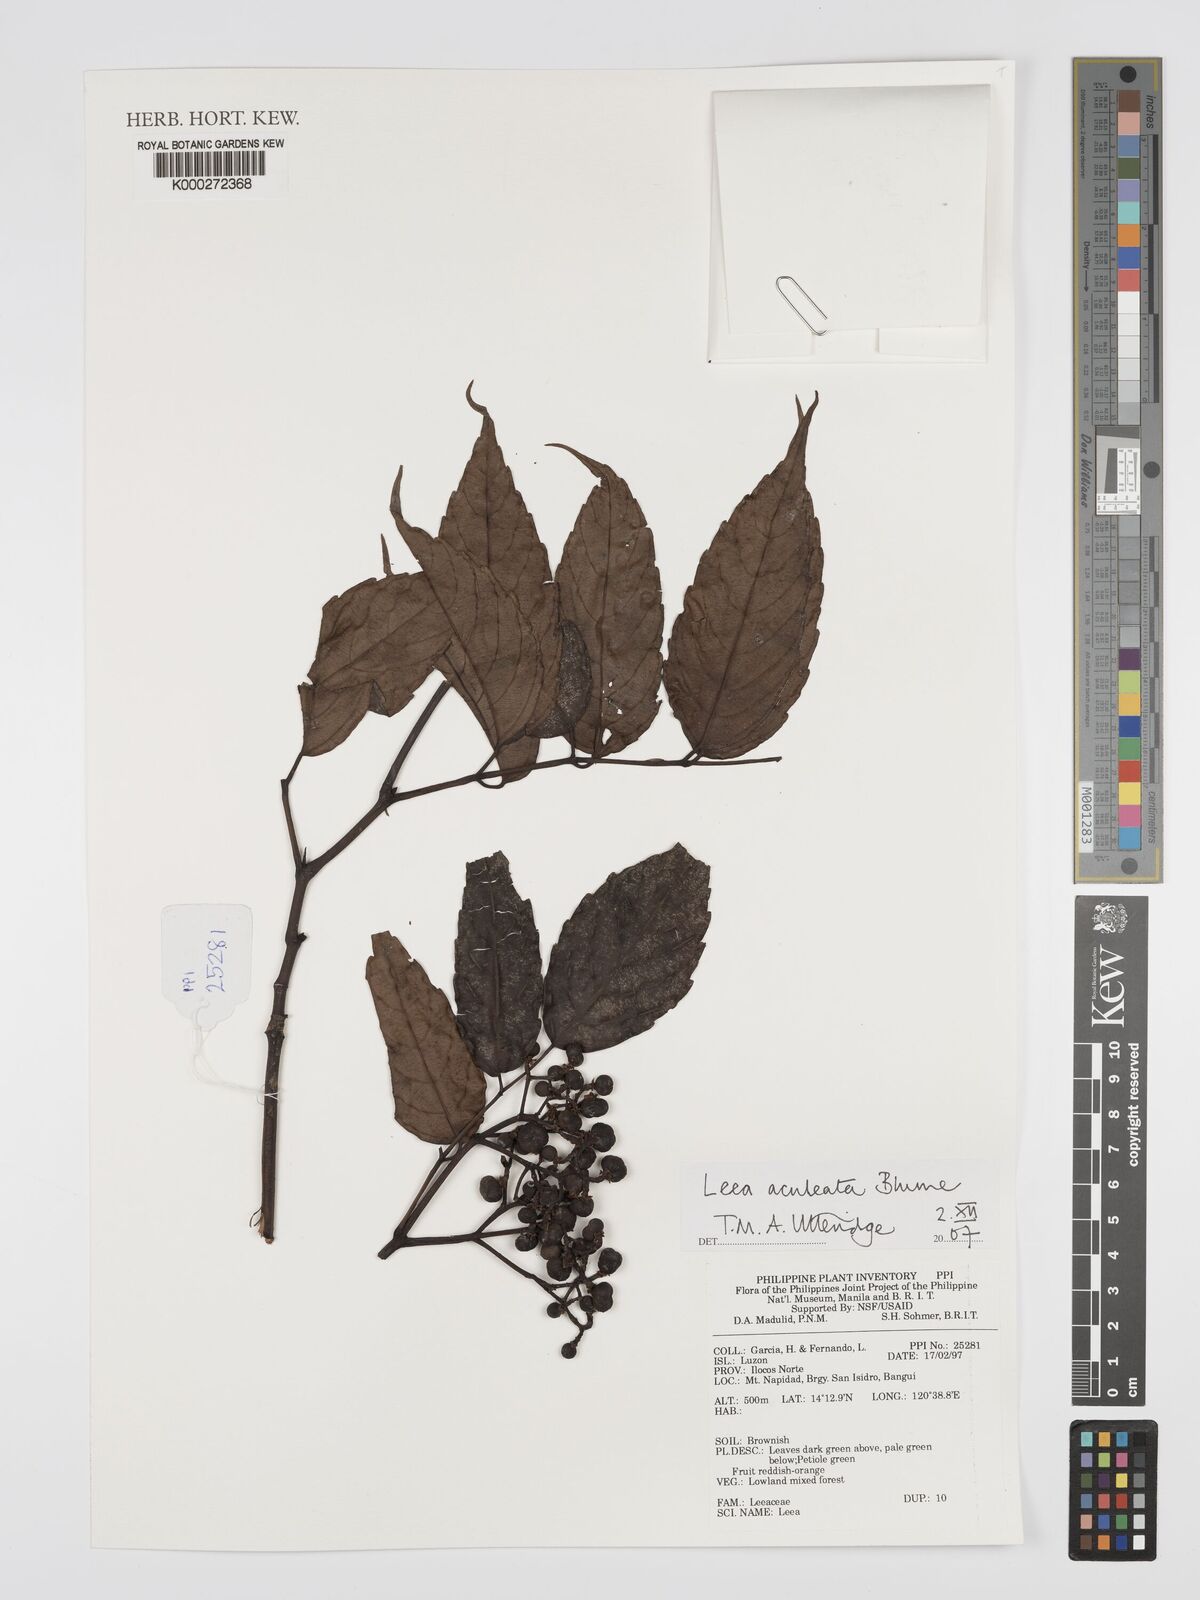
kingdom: Plantae
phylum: Tracheophyta
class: Magnoliopsida
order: Vitales
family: Vitaceae
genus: Leea
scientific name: Leea aculeata
